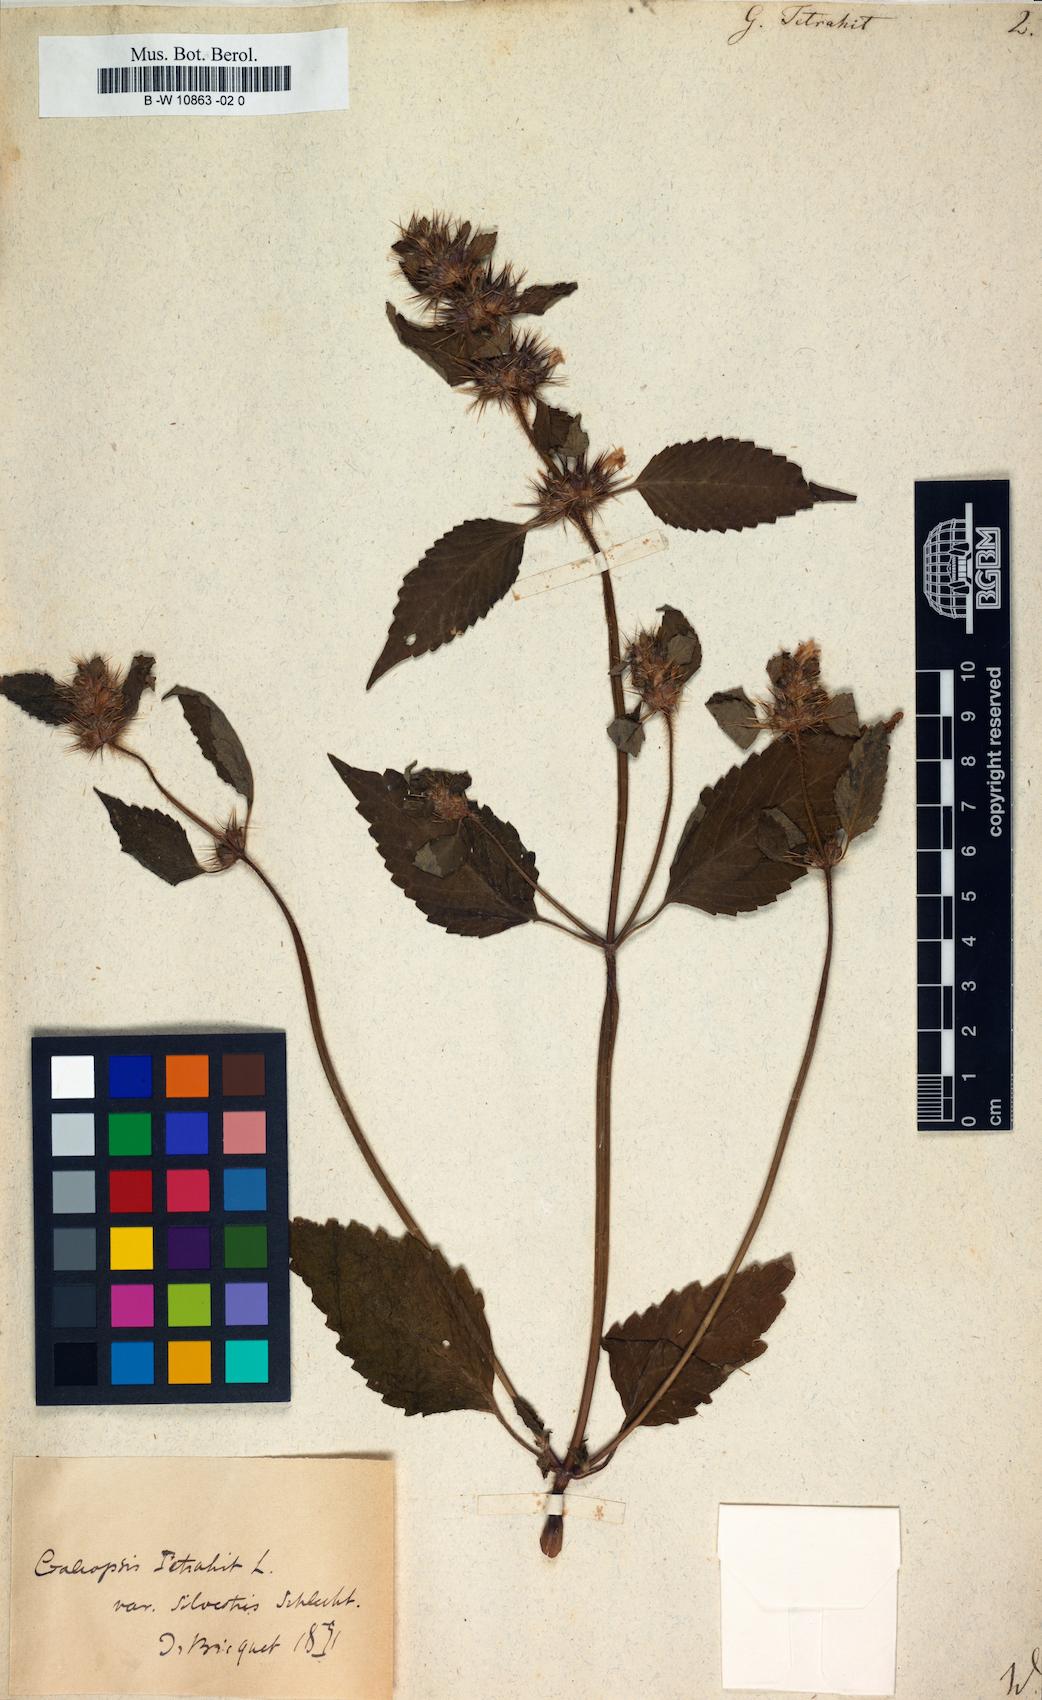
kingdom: Plantae
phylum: Tracheophyta
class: Magnoliopsida
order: Lamiales
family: Lamiaceae
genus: Galeopsis
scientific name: Galeopsis tetrahit
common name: Common hemp-nettle
